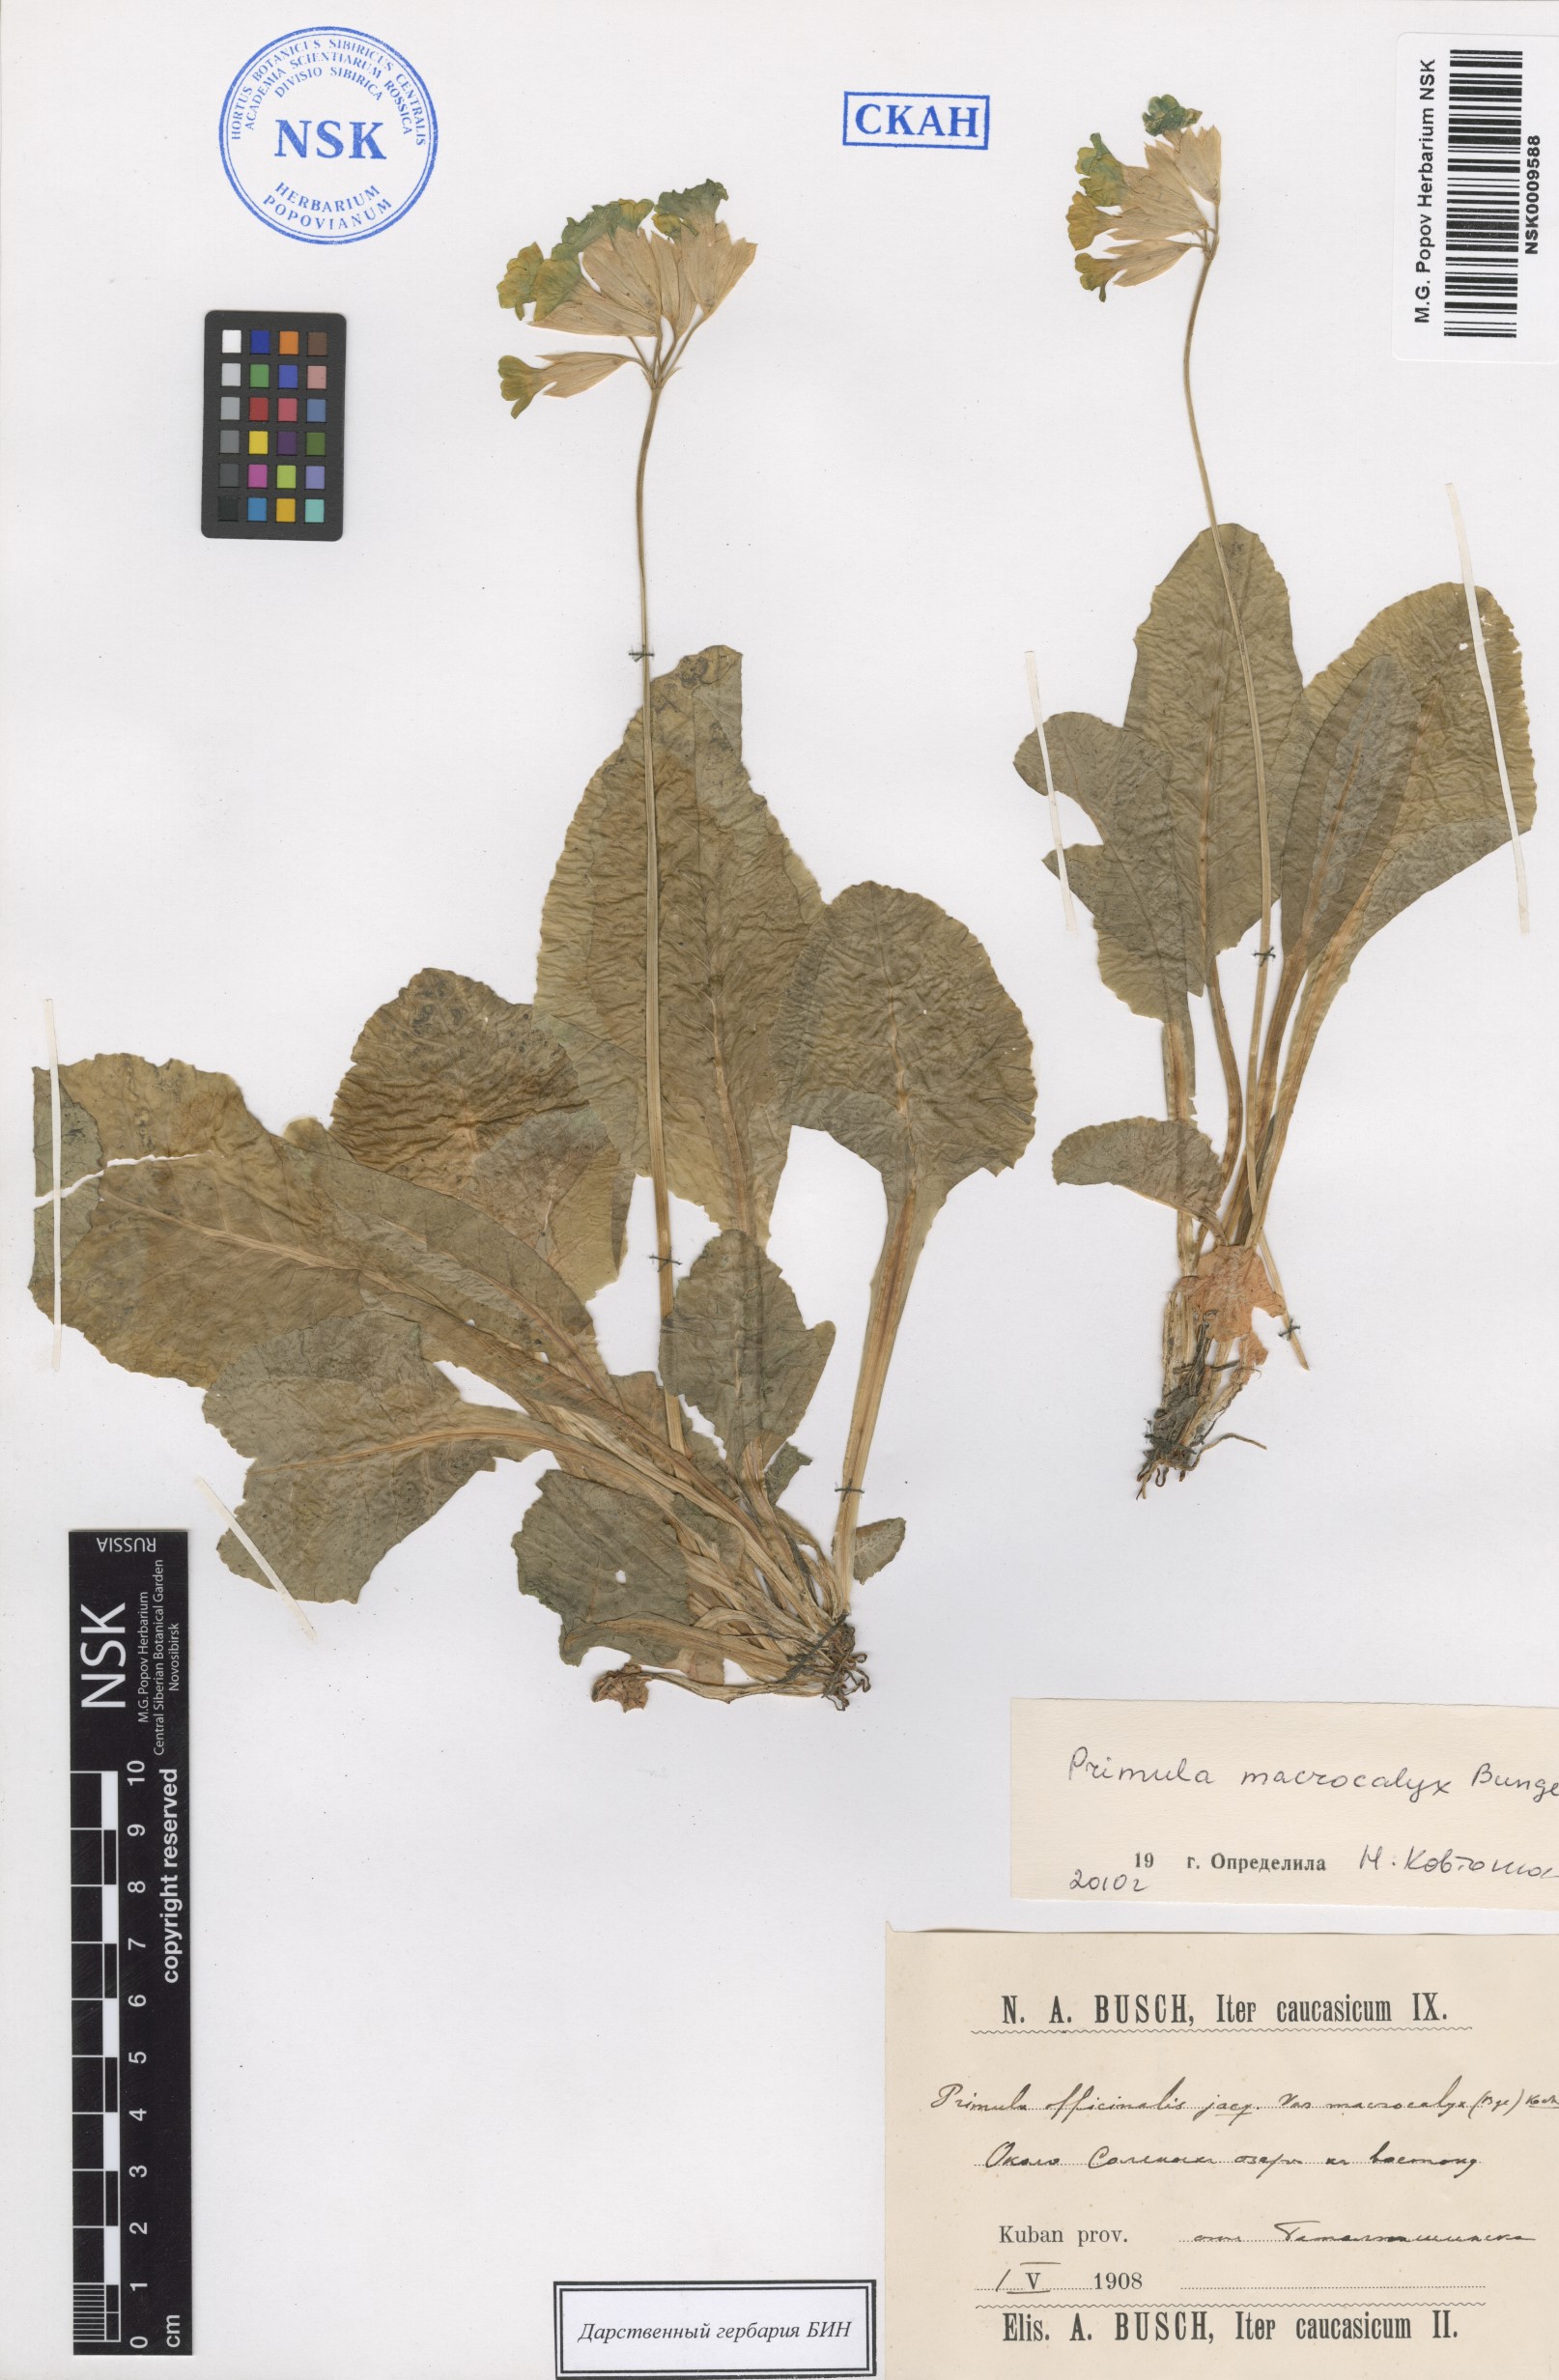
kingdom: Plantae
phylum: Tracheophyta
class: Magnoliopsida
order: Ericales
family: Primulaceae
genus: Primula
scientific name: Primula veris
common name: Cowslip
